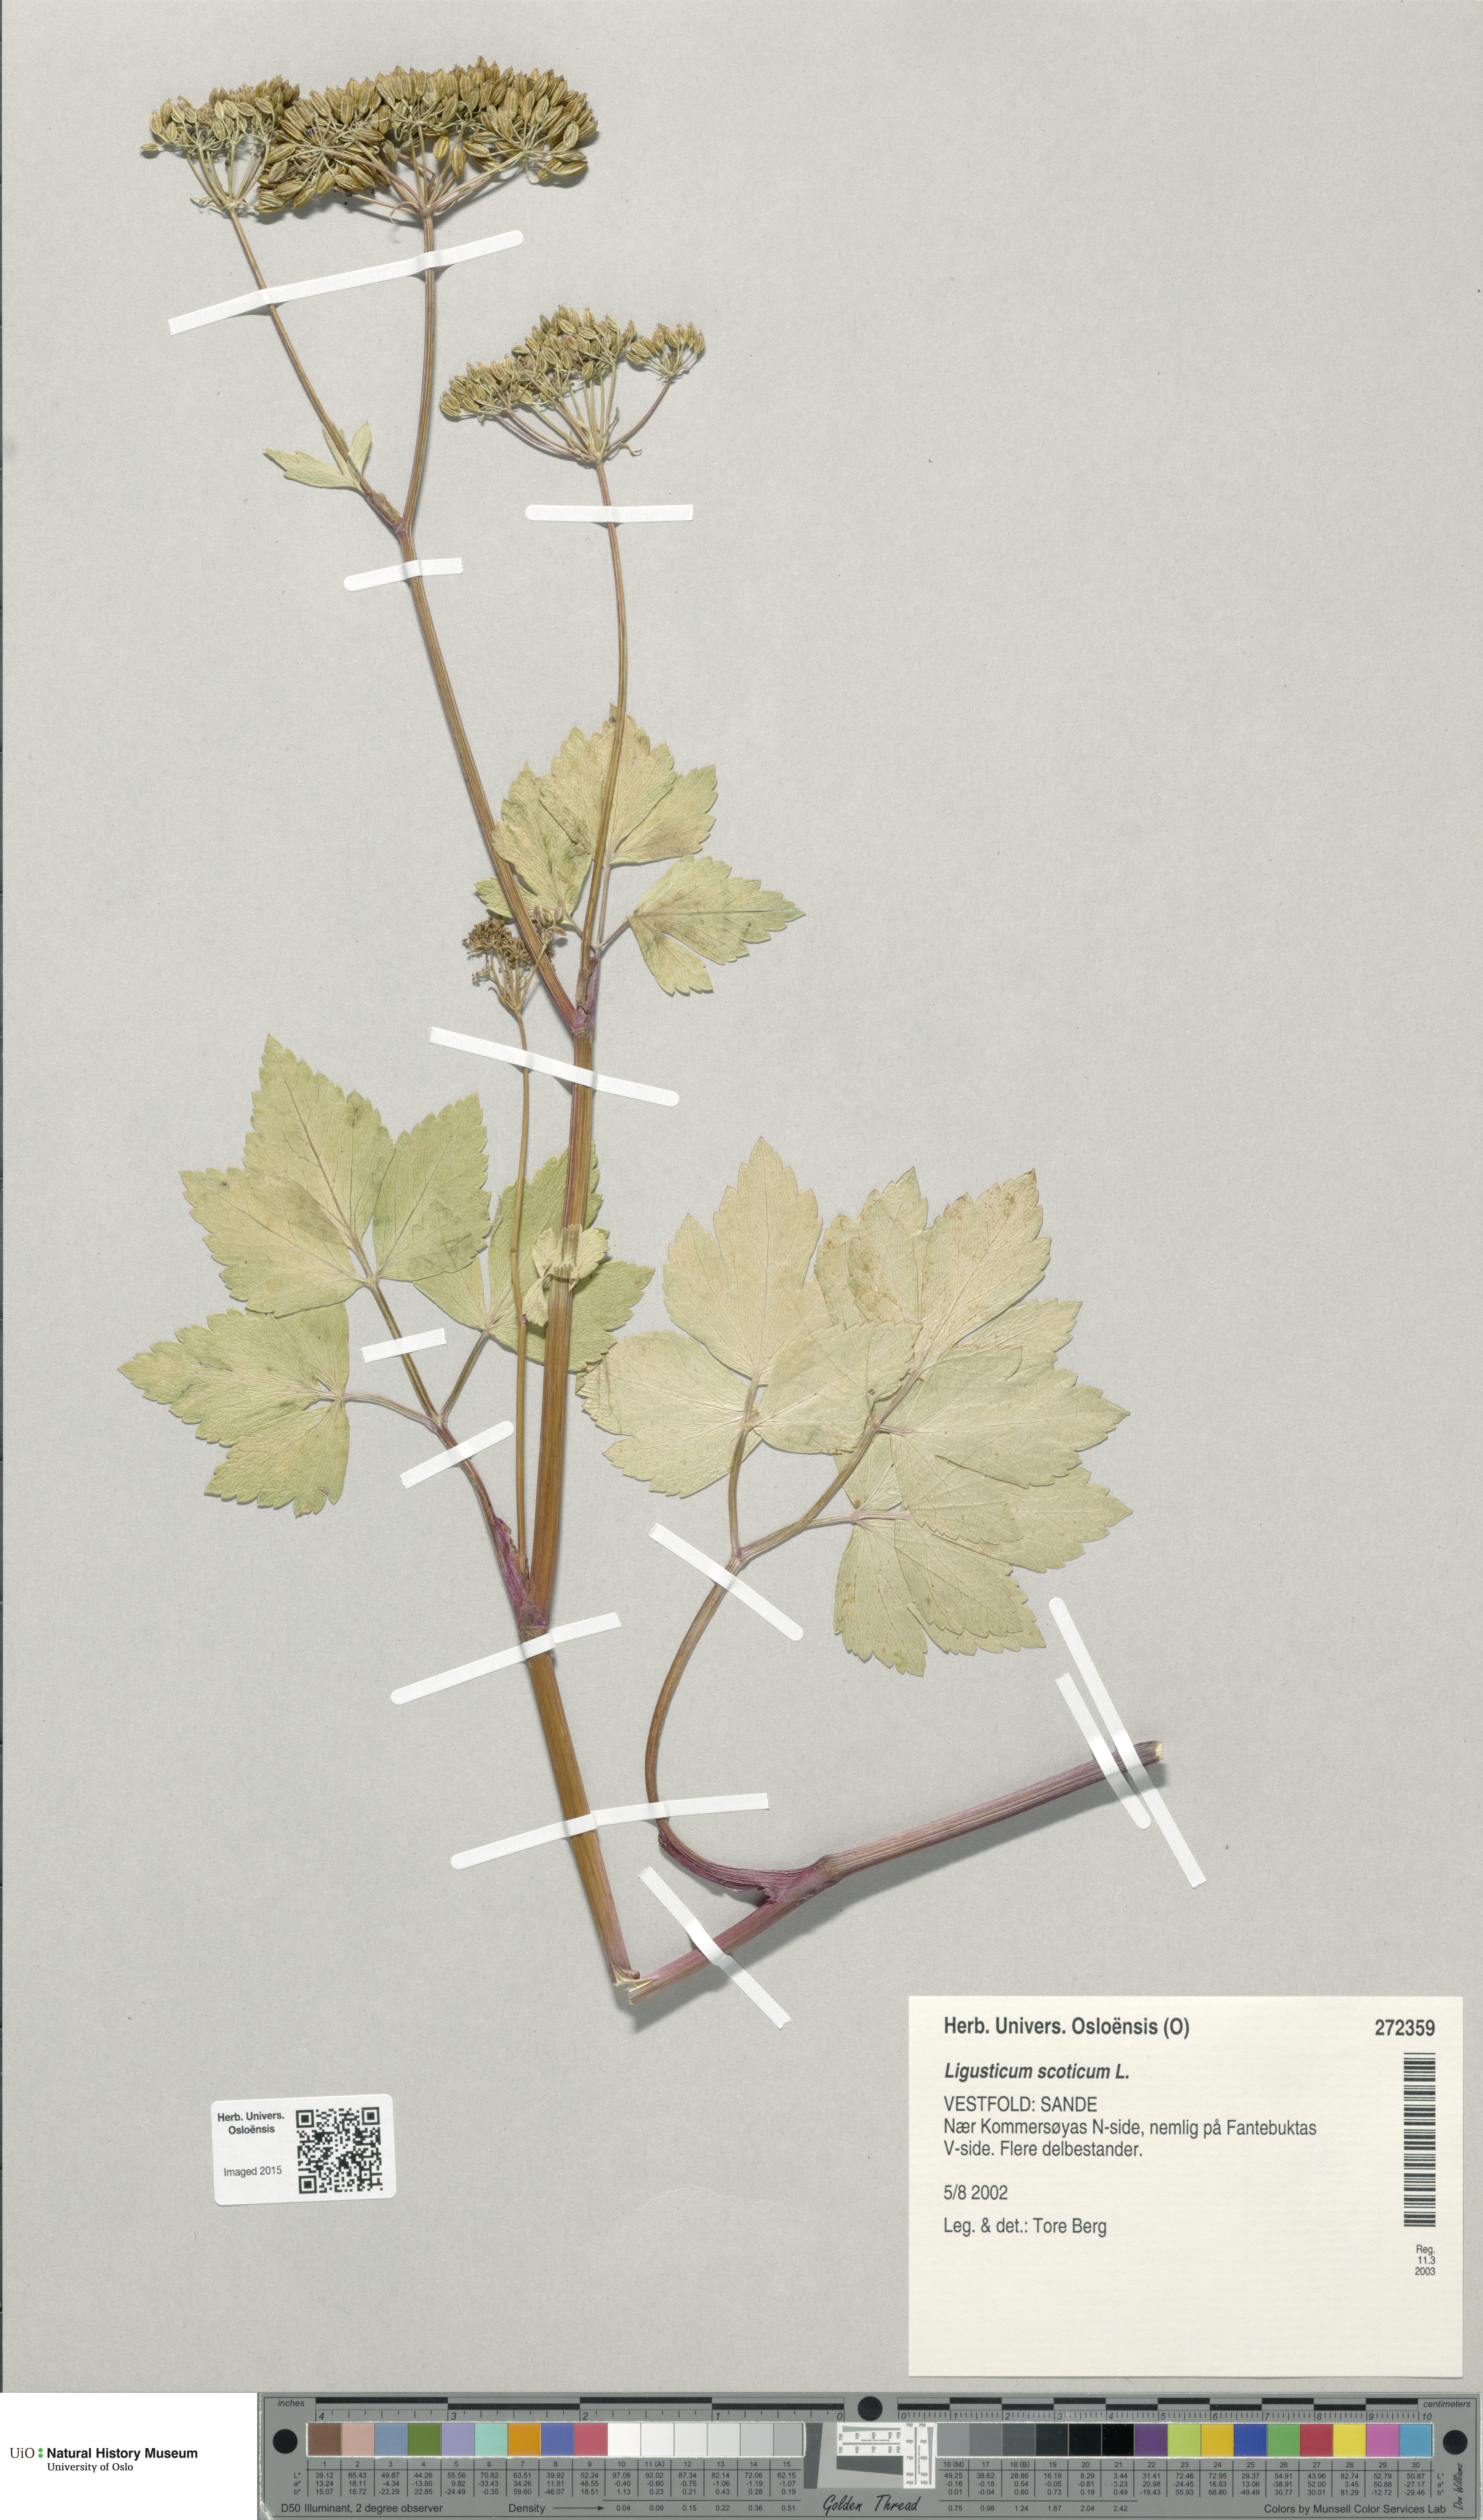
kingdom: Plantae
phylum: Tracheophyta
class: Magnoliopsida
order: Apiales
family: Apiaceae
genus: Ligusticum
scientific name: Ligusticum scothicum
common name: Beach lovage
